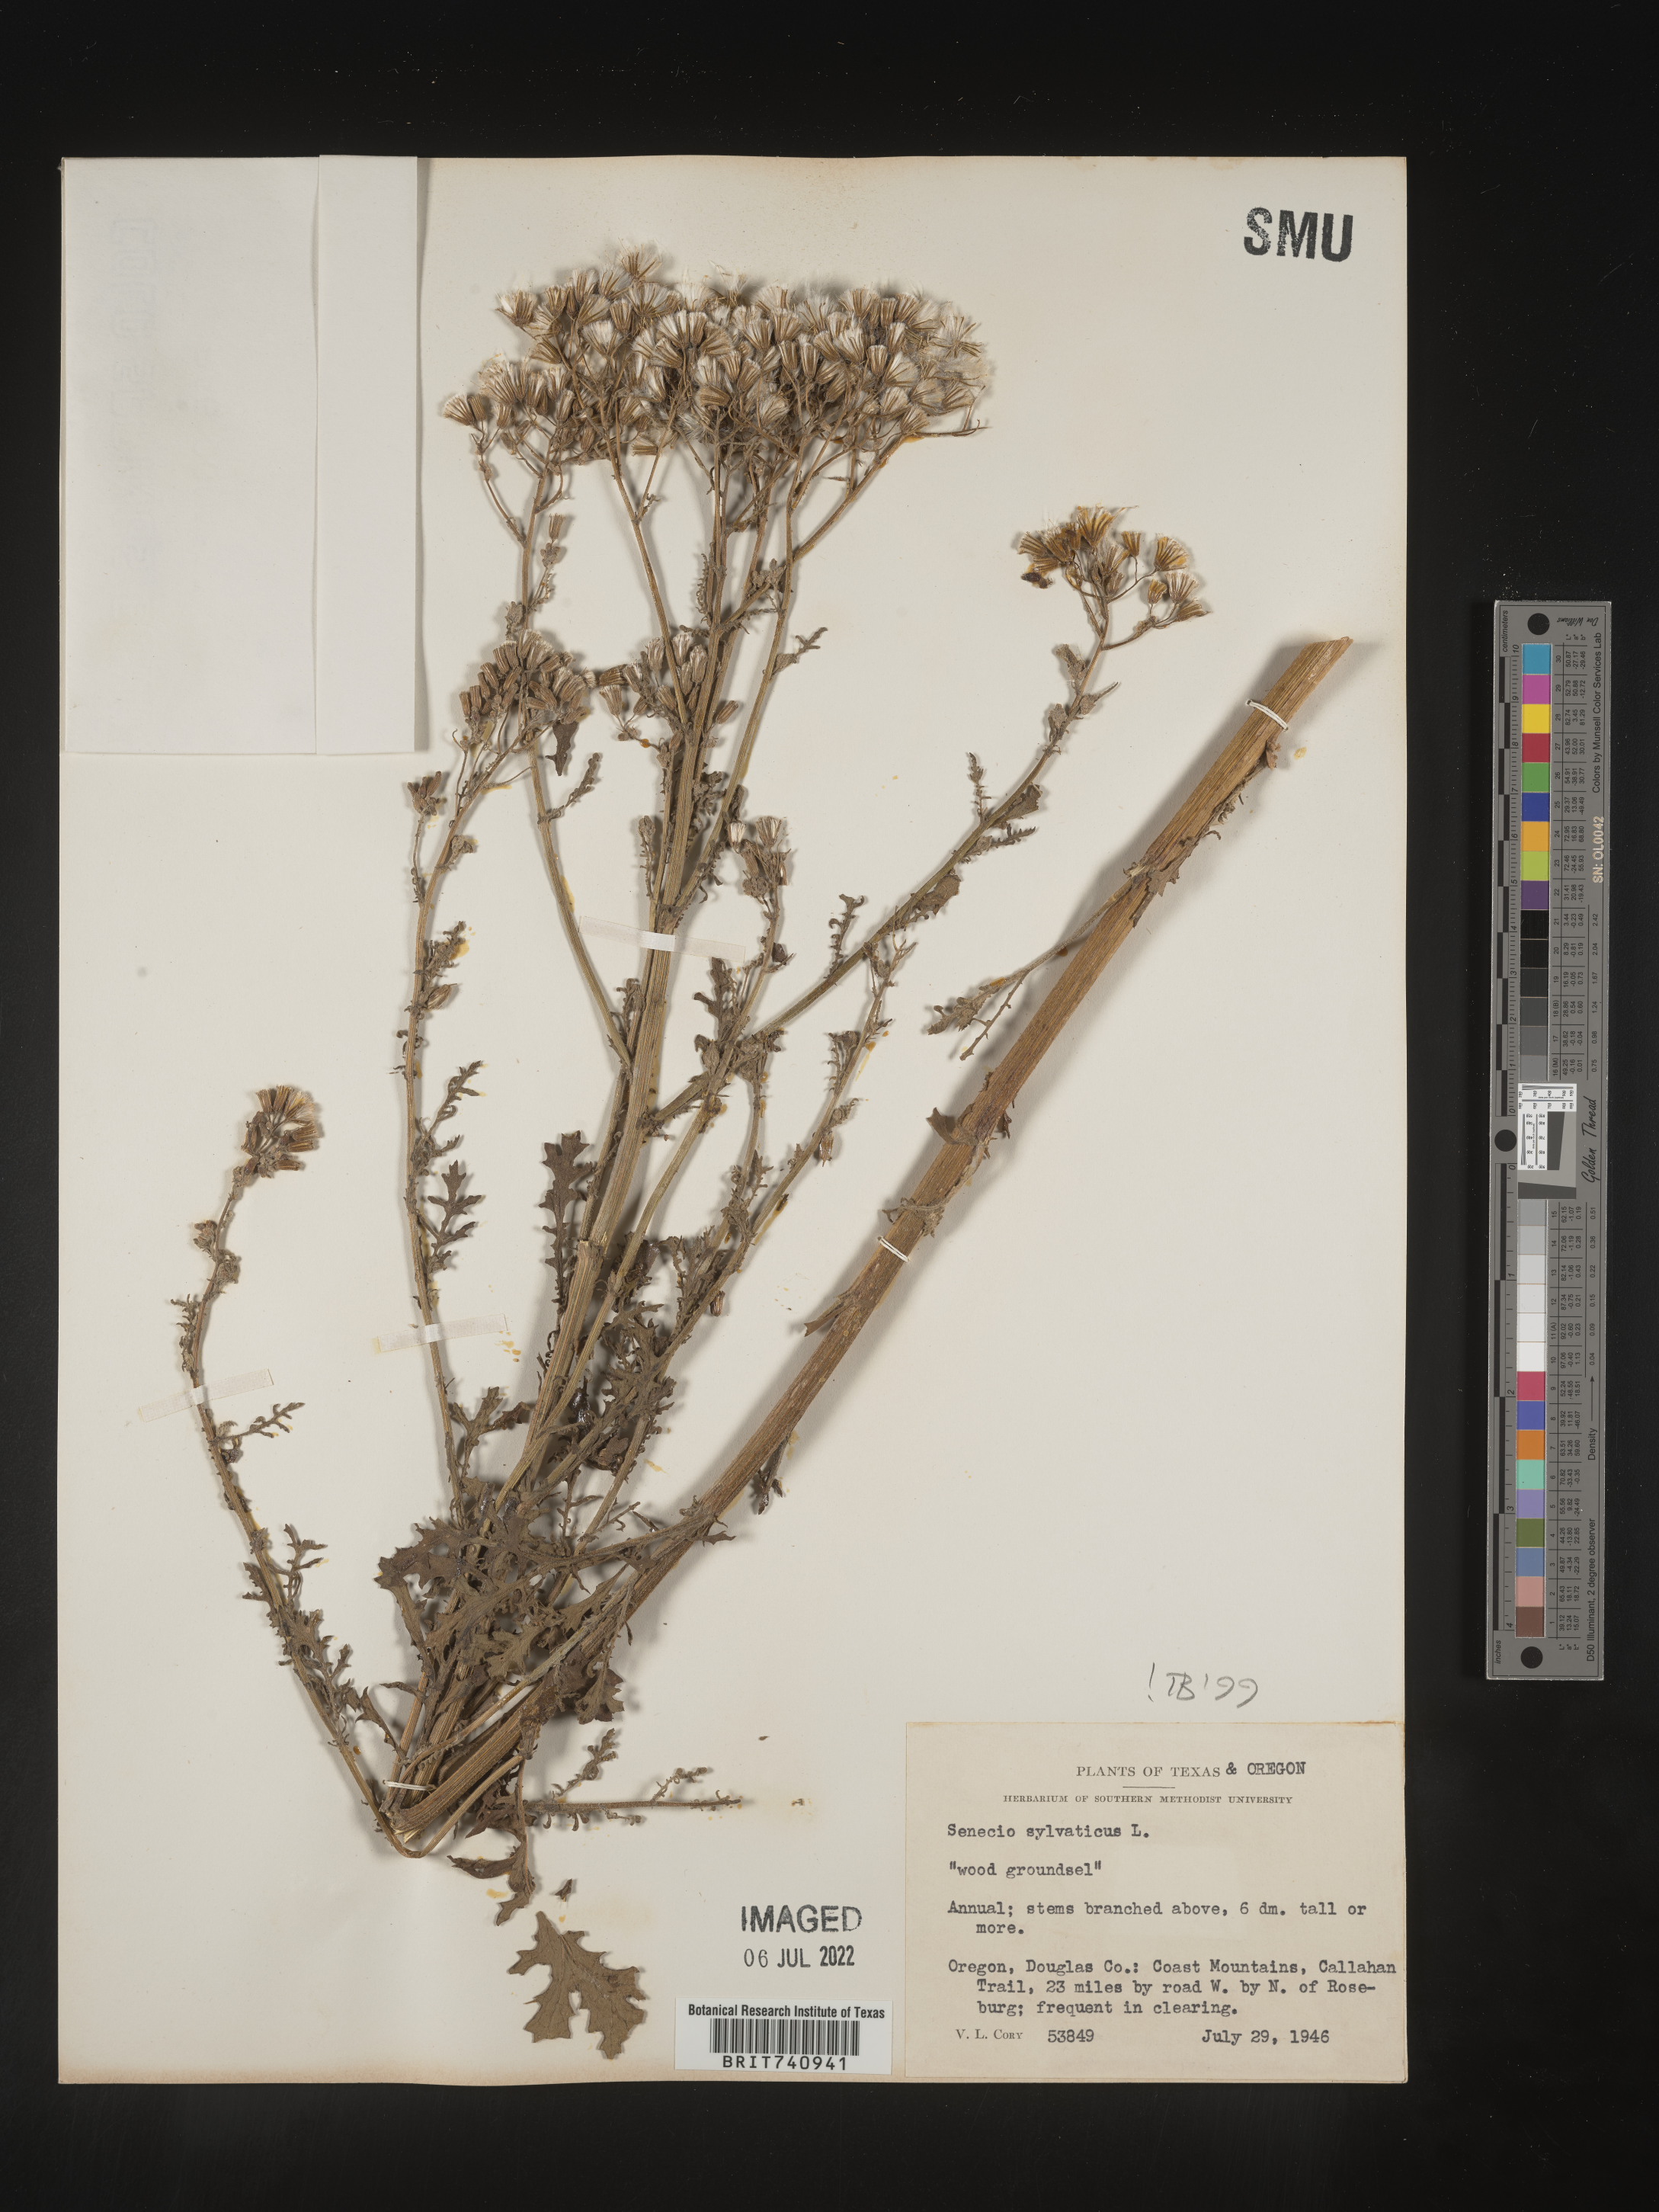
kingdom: Plantae
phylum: Tracheophyta
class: Magnoliopsida
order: Asterales
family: Asteraceae
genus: Senecio
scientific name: Senecio sylvaticus
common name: Woodland ragwort
